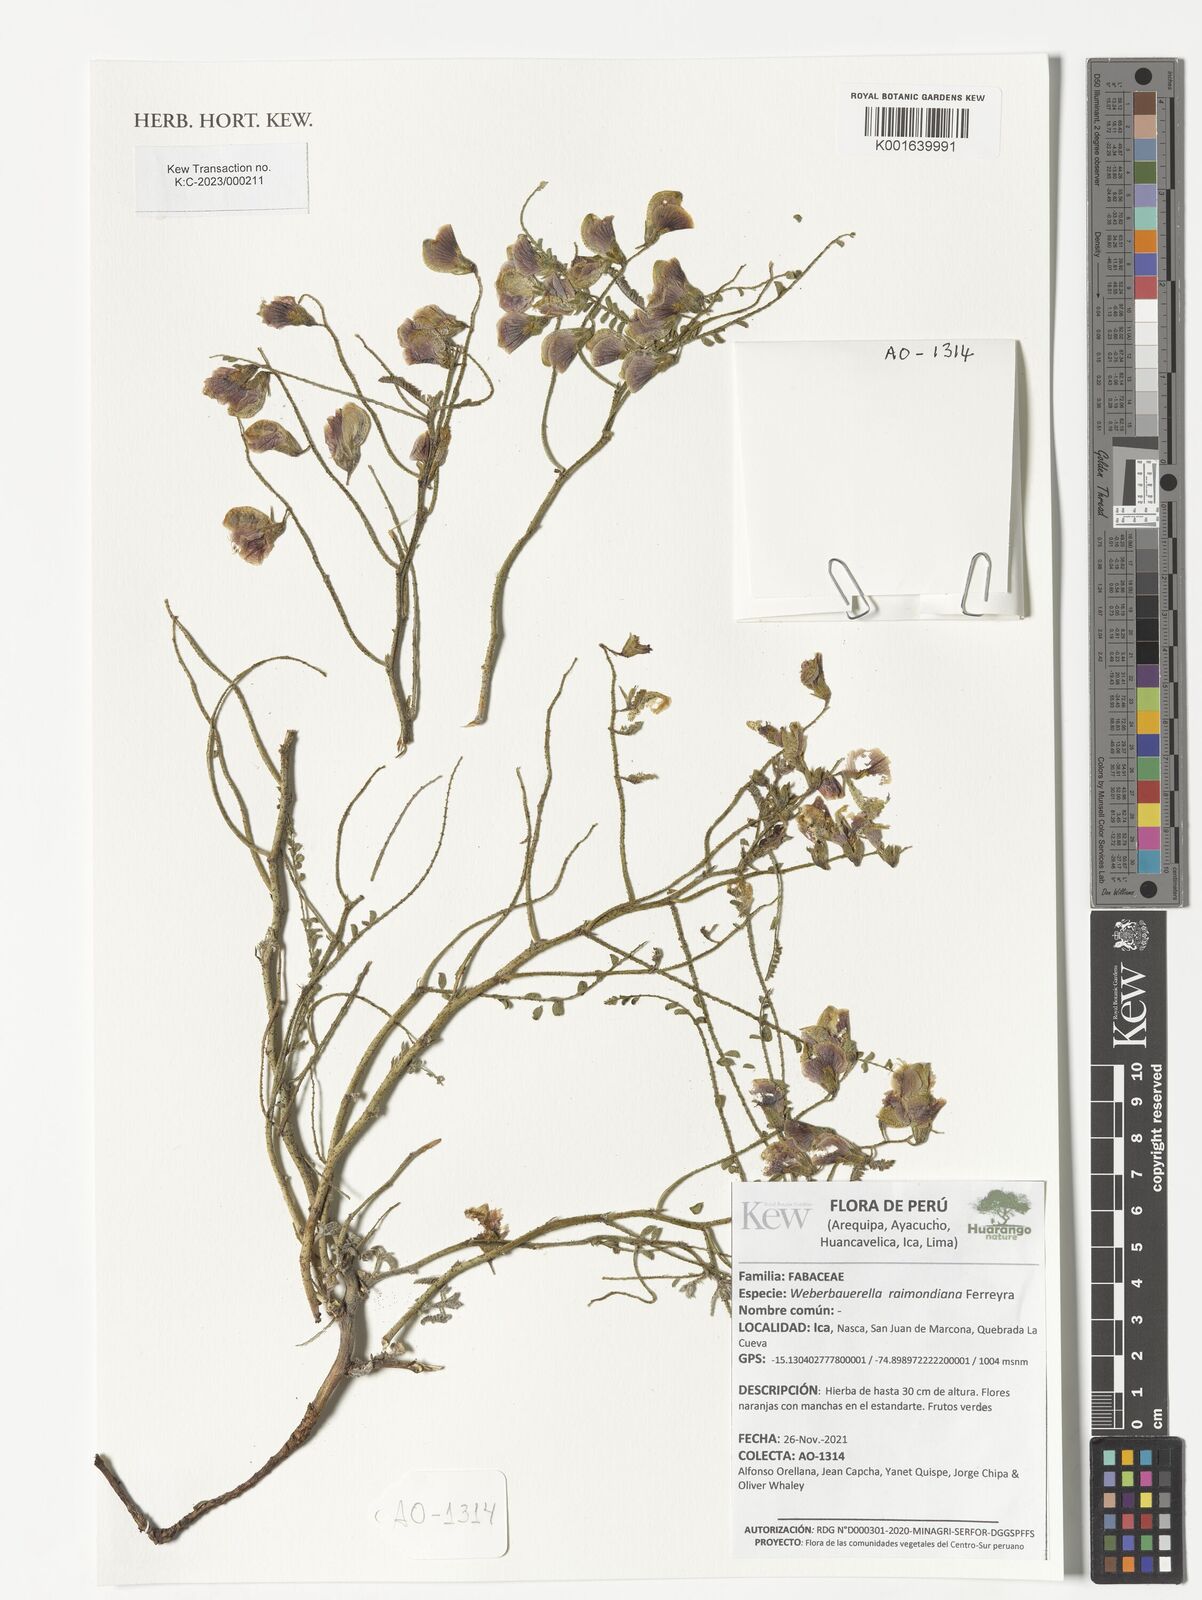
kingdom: Plantae
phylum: Tracheophyta
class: Magnoliopsida
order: Fabales
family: Fabaceae
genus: Weberbauerella
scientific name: Weberbauerella raimondiana
